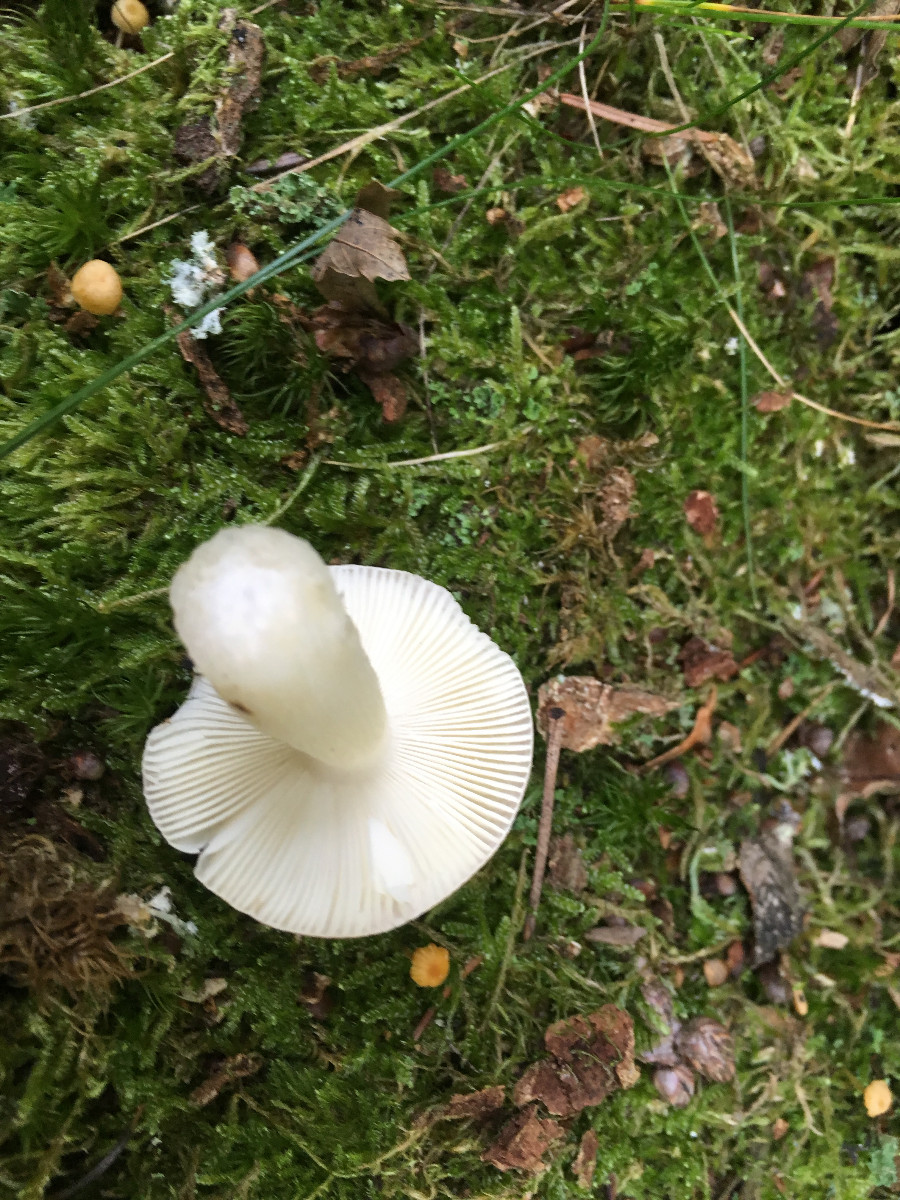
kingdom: Fungi
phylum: Basidiomycota
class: Agaricomycetes
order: Russulales
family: Russulaceae
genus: Russula
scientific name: Russula fragilis
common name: Fragile brittlegill
